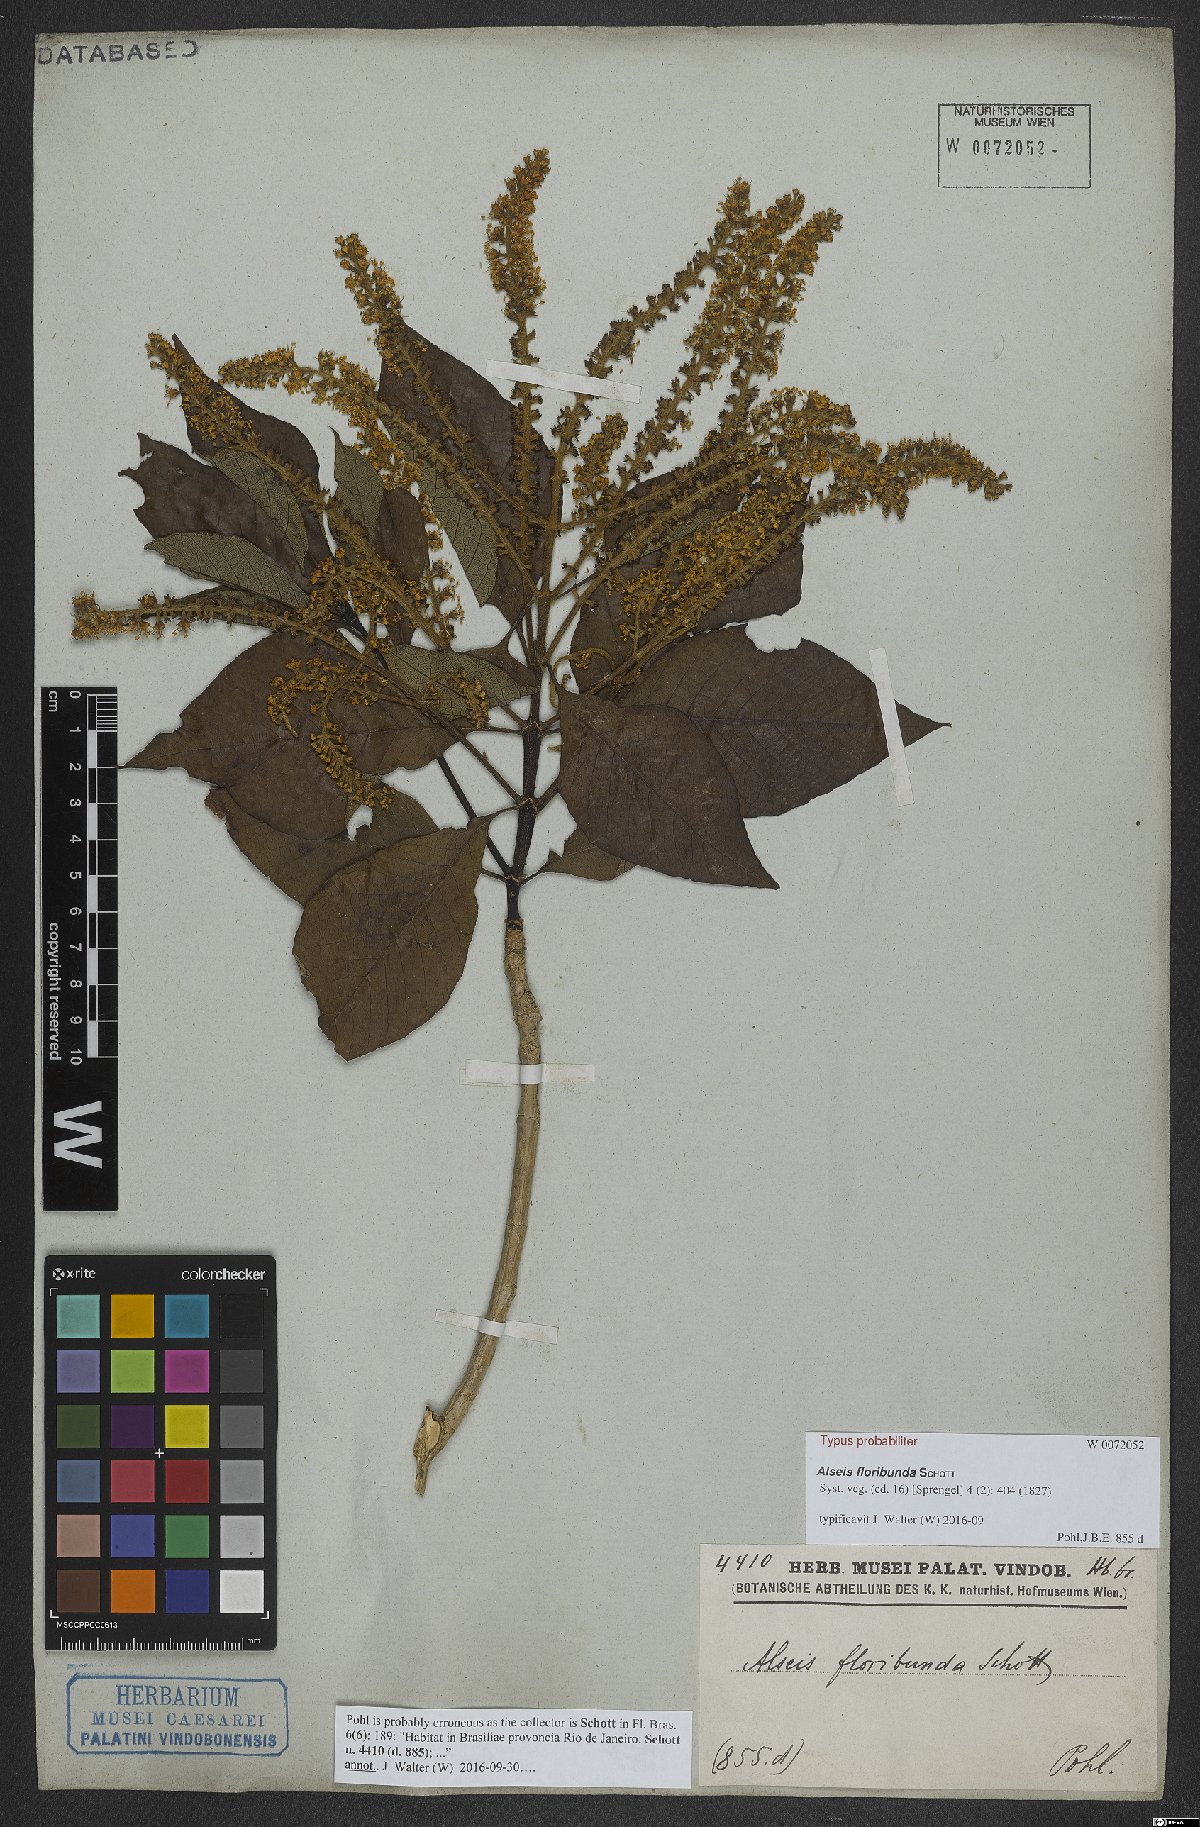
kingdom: Plantae
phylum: Tracheophyta
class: Magnoliopsida
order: Gentianales
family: Rubiaceae
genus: Alseis
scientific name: Alseis floribunda
